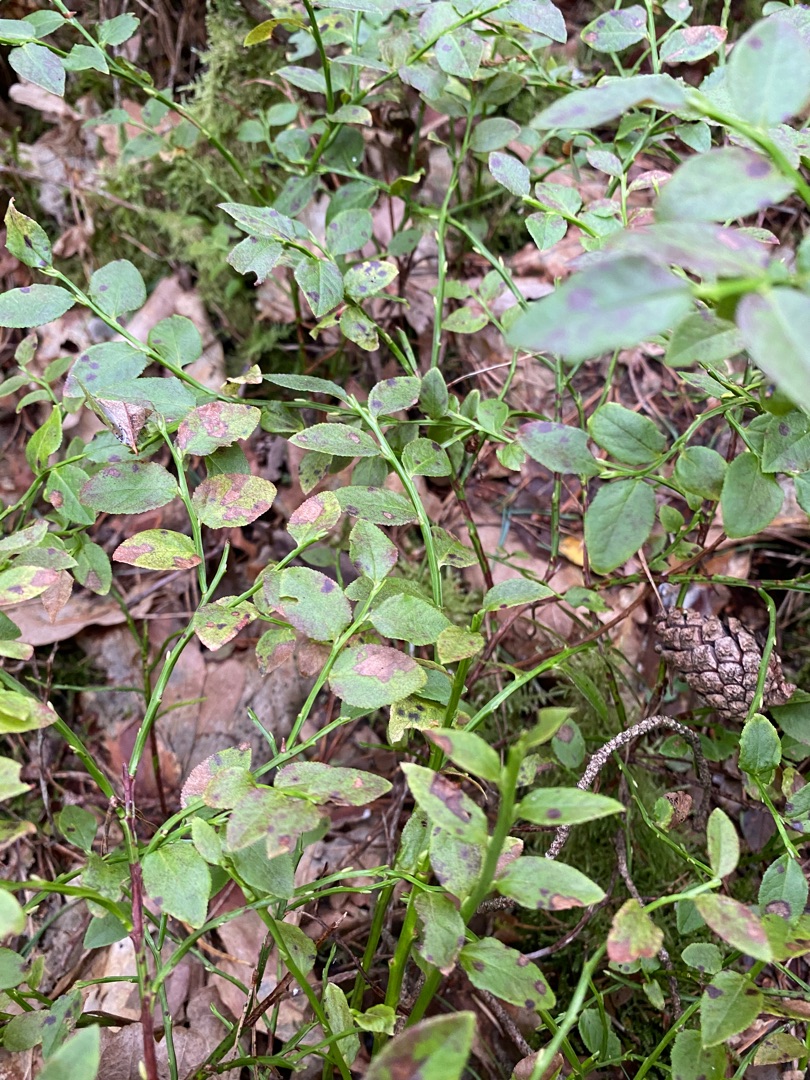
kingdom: Plantae
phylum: Tracheophyta
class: Magnoliopsida
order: Ericales
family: Ericaceae
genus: Vaccinium
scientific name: Vaccinium myrtillus
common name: Blåbær
